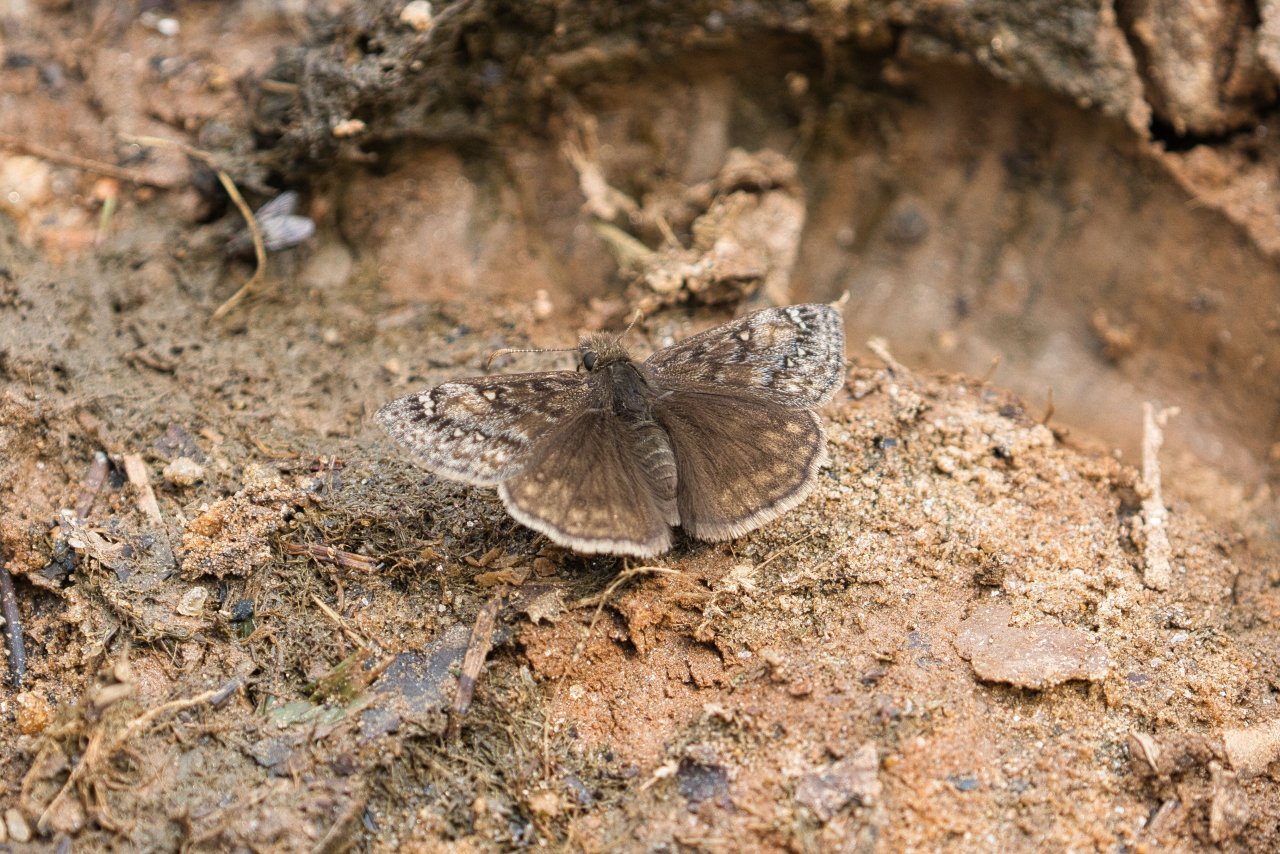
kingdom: Animalia
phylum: Arthropoda
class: Insecta
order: Lepidoptera
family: Hesperiidae
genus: Gesta
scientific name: Gesta
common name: Juvenal's Duskywing
